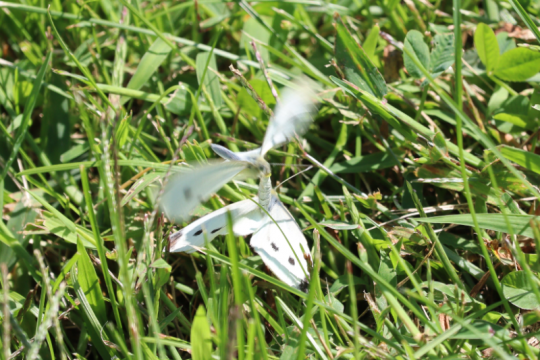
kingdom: Animalia
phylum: Arthropoda
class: Insecta
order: Lepidoptera
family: Pieridae
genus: Pieris
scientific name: Pieris rapae
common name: Cabbage White
